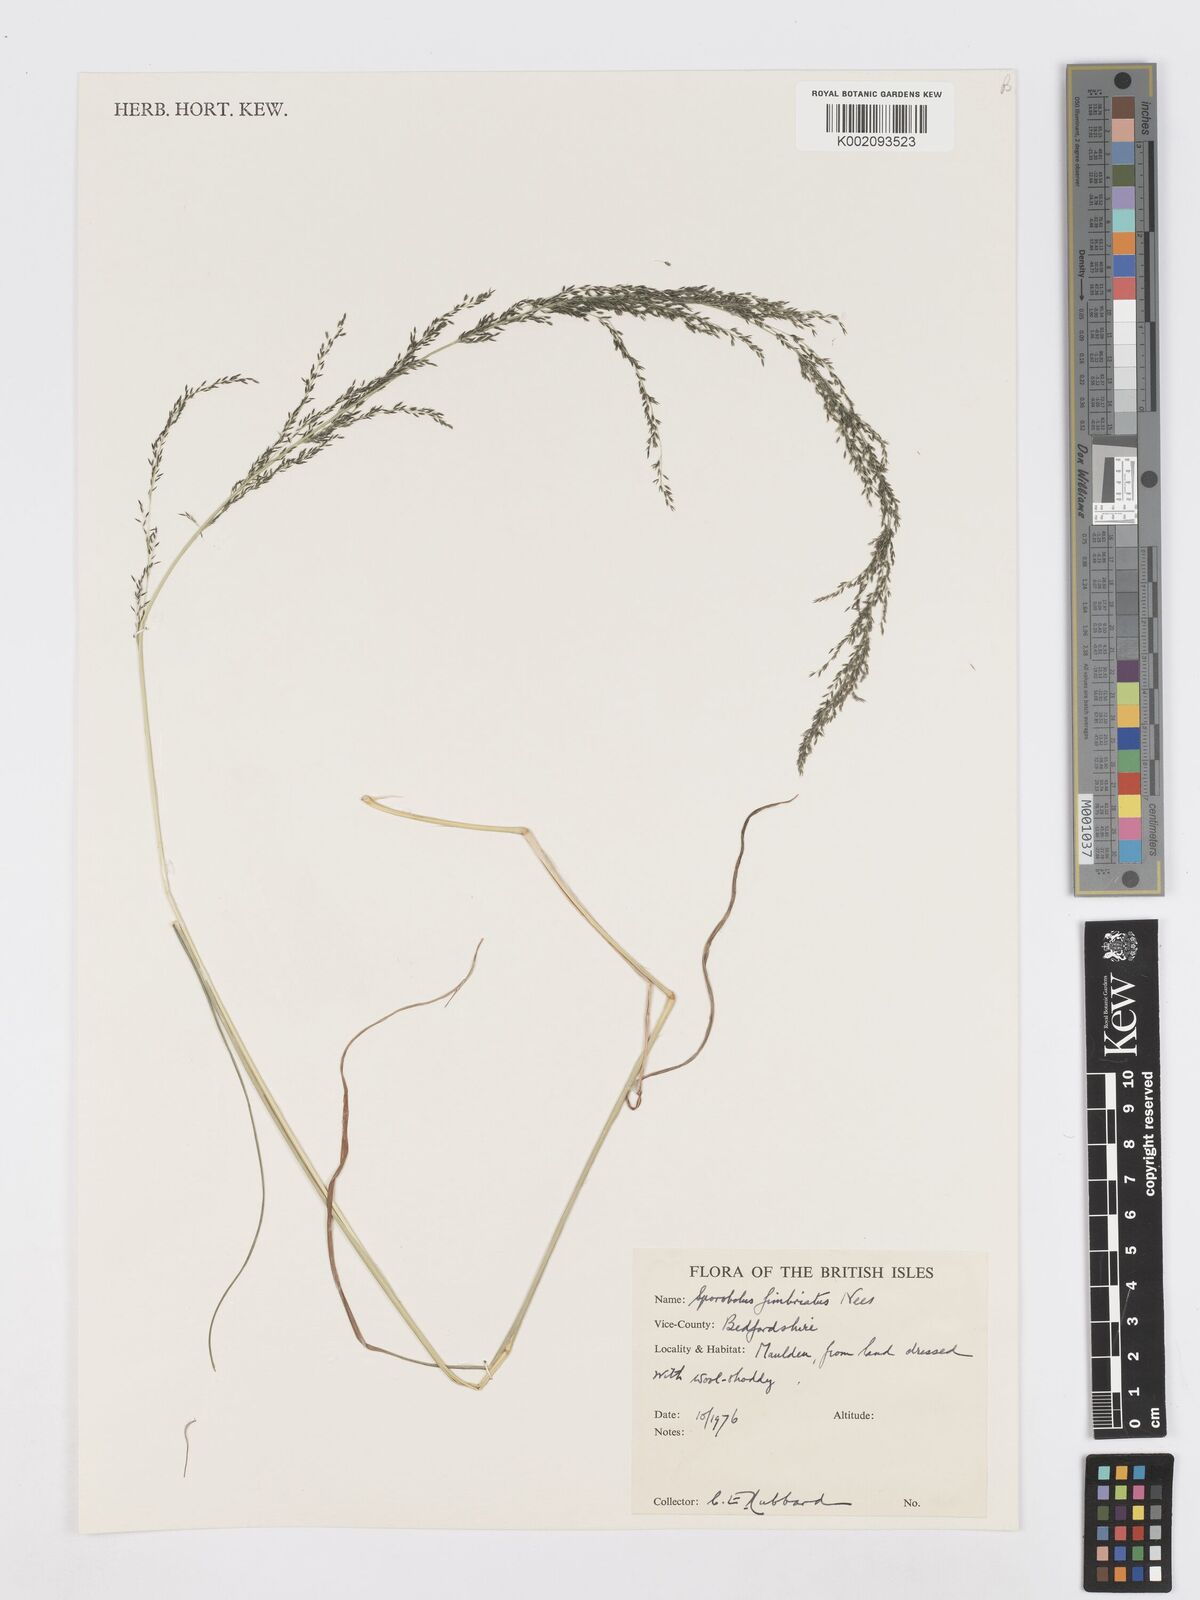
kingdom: Plantae
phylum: Tracheophyta
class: Liliopsida
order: Poales
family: Poaceae
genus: Sporobolus
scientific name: Sporobolus fimbriatus
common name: Fringed dropseed
